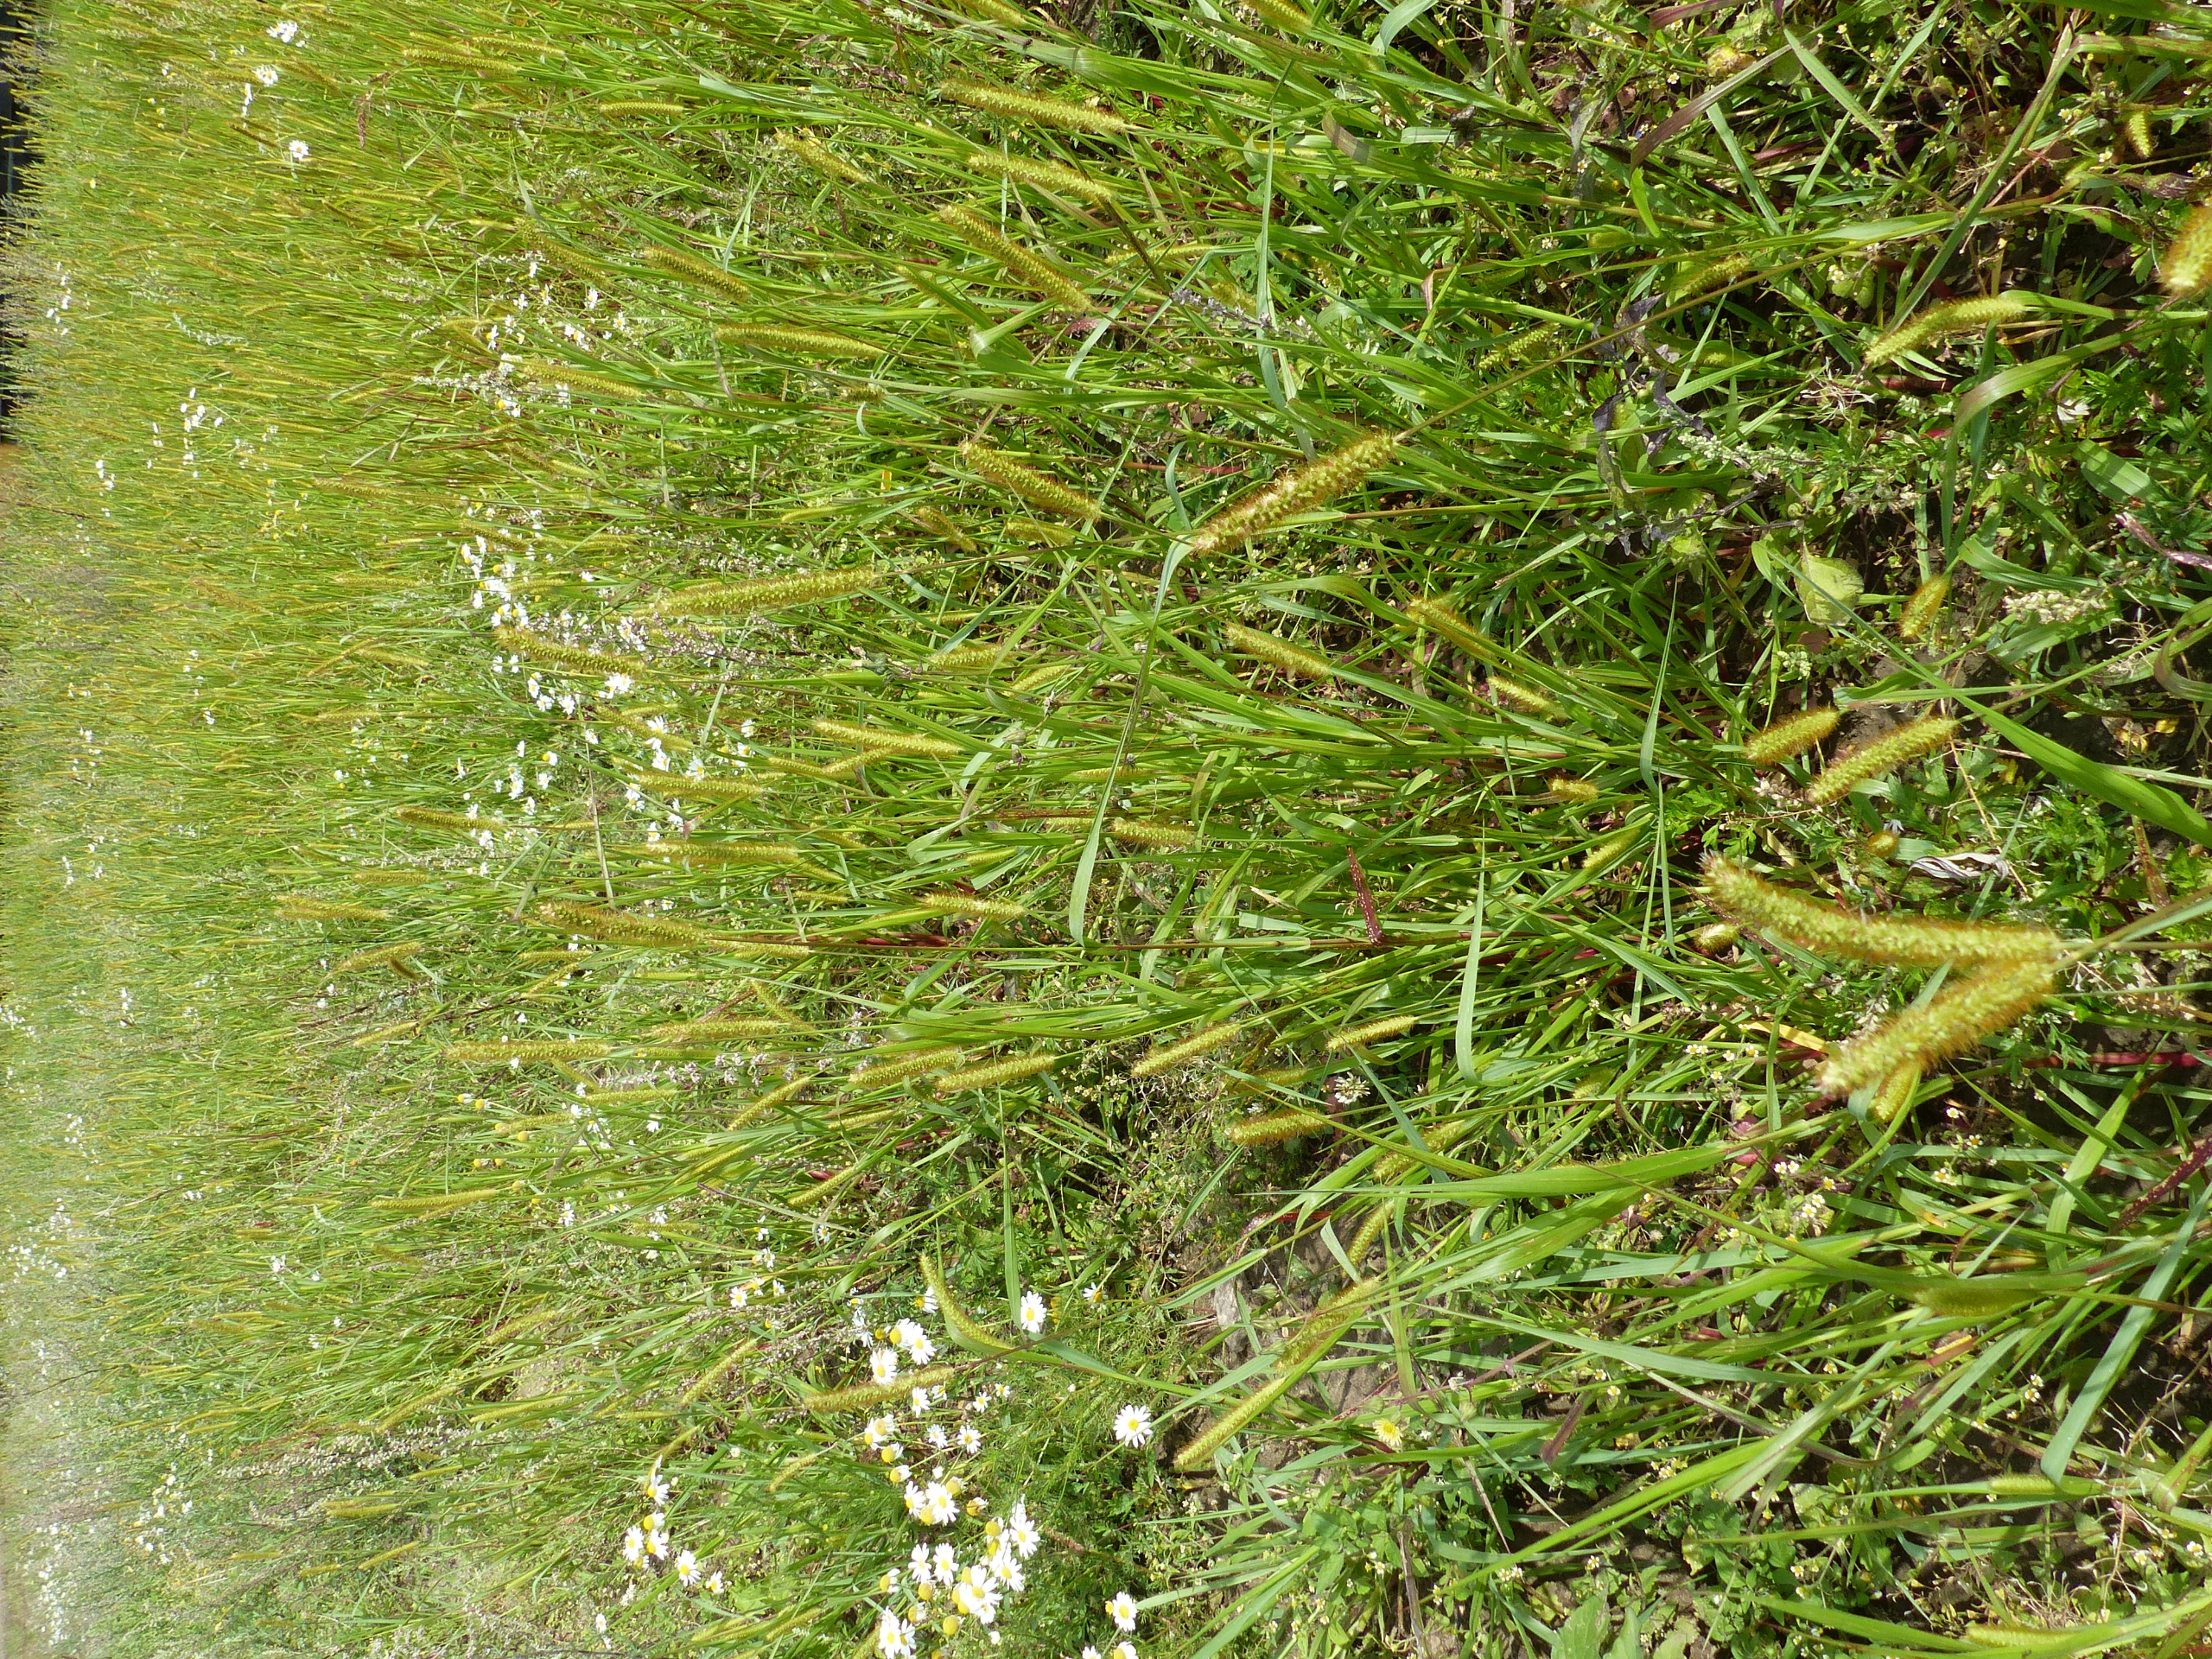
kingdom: Plantae
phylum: Tracheophyta
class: Liliopsida
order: Poales
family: Poaceae
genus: Setaria
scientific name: Setaria pumila
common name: Blågrøn skærmaks
